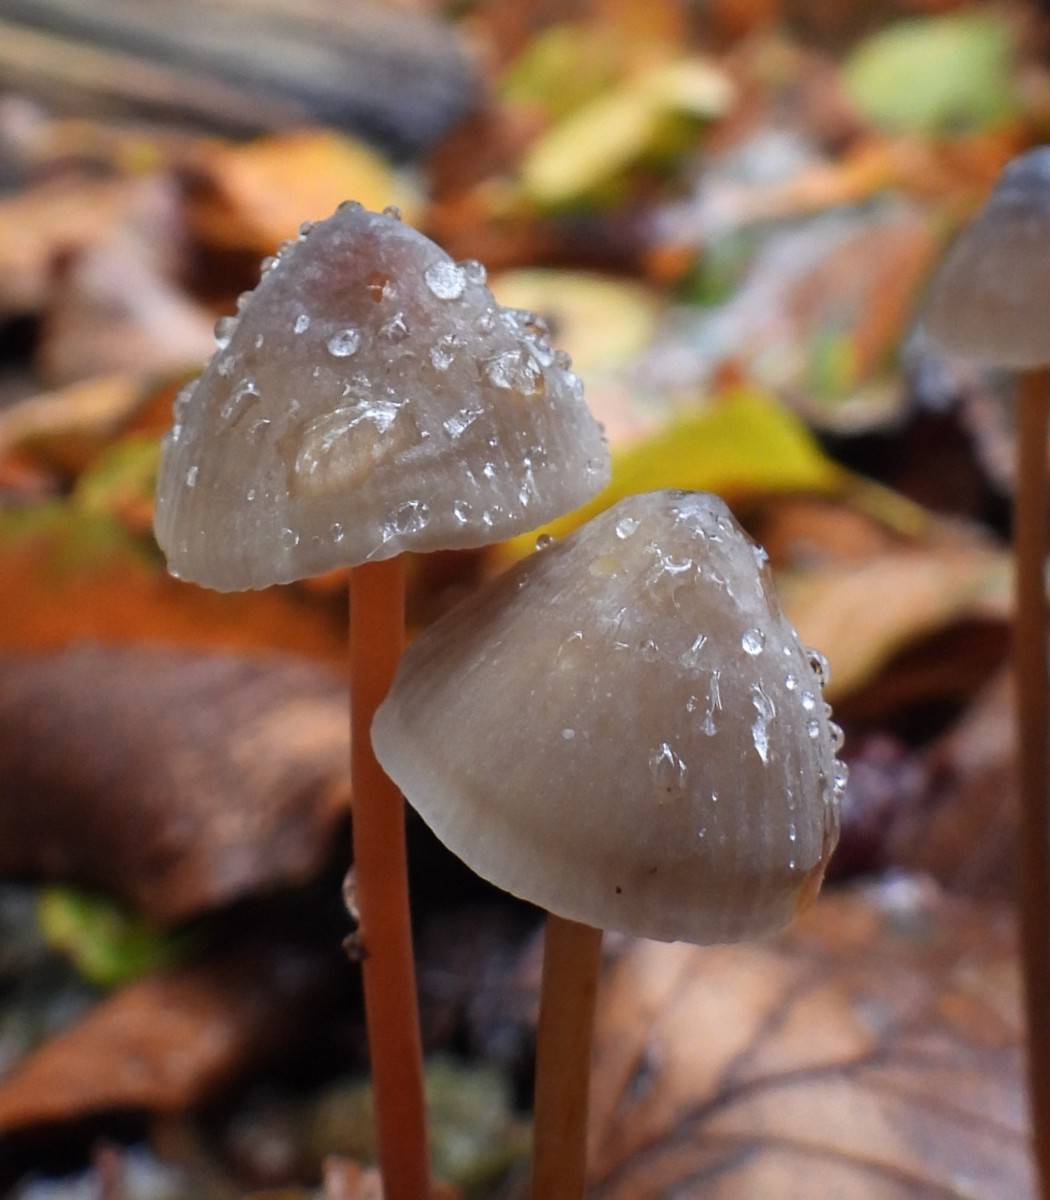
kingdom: Fungi
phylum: Basidiomycota
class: Agaricomycetes
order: Agaricales
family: Mycenaceae
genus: Mycena
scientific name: Mycena crocata
